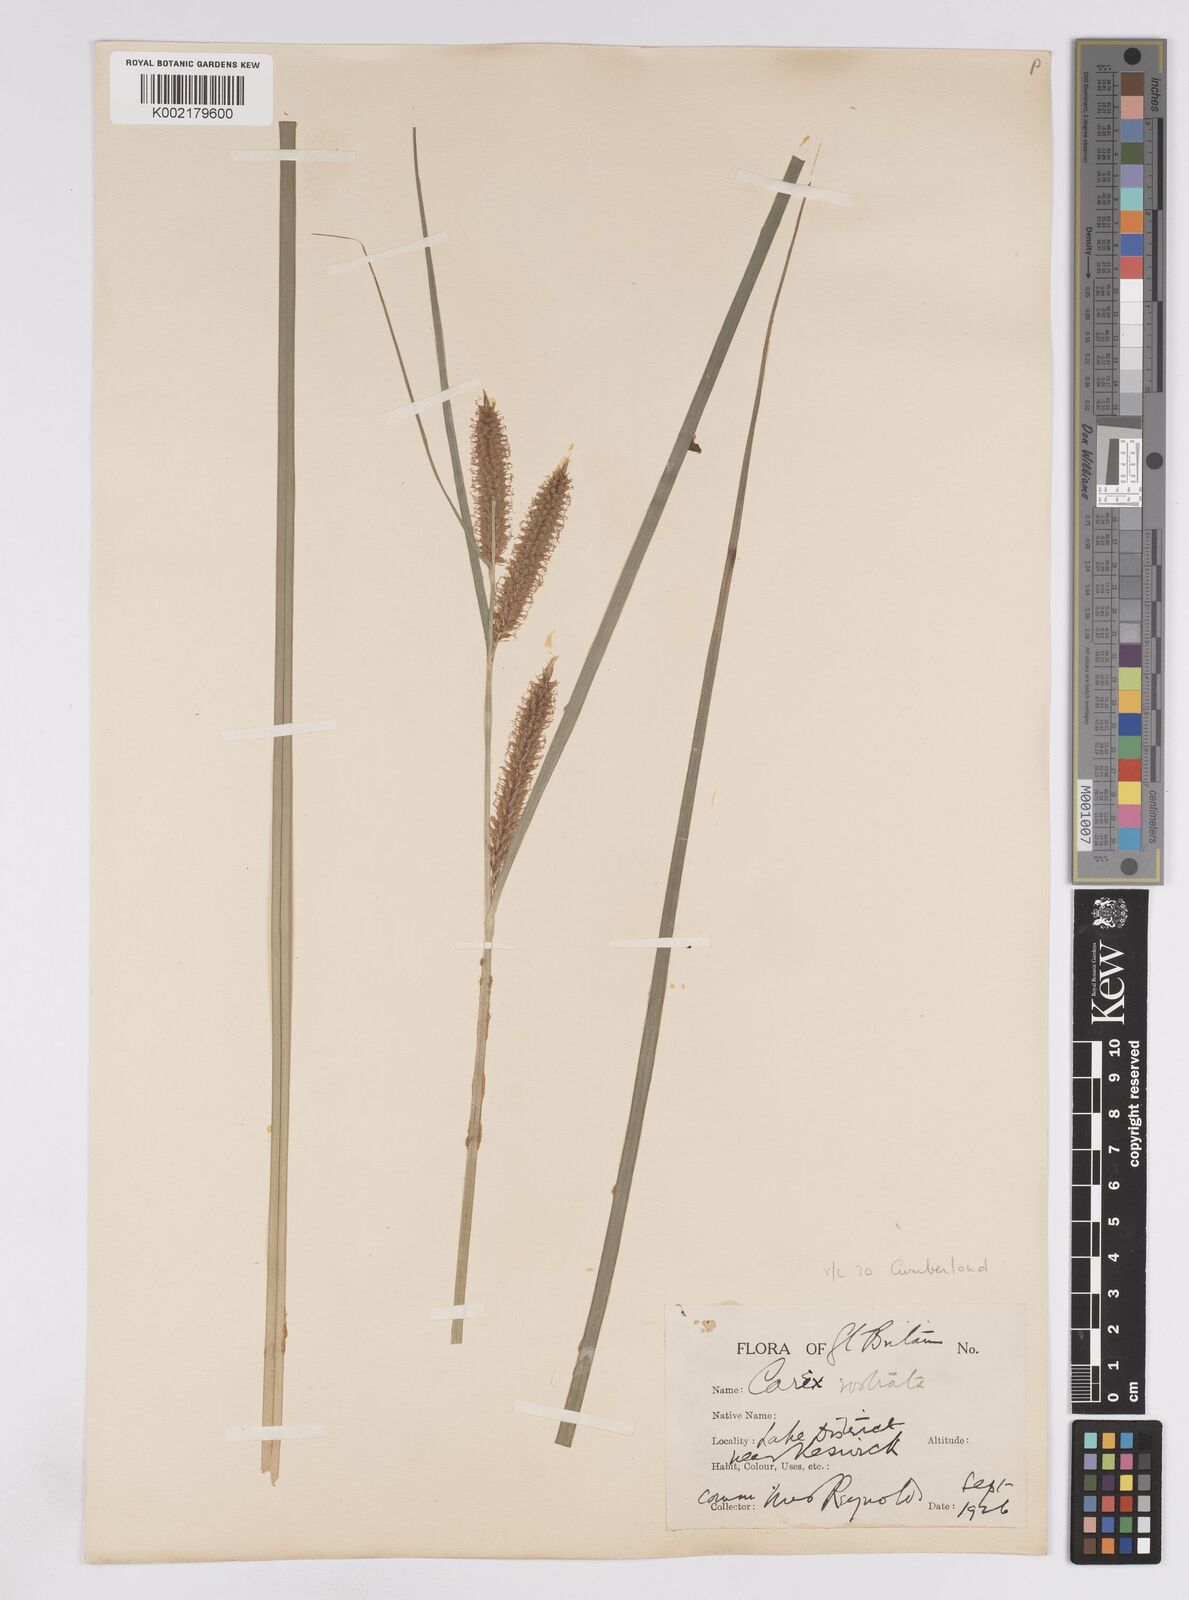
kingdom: Plantae
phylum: Tracheophyta
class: Liliopsida
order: Poales
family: Cyperaceae
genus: Carex
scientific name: Carex rostrata
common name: Bottle sedge
